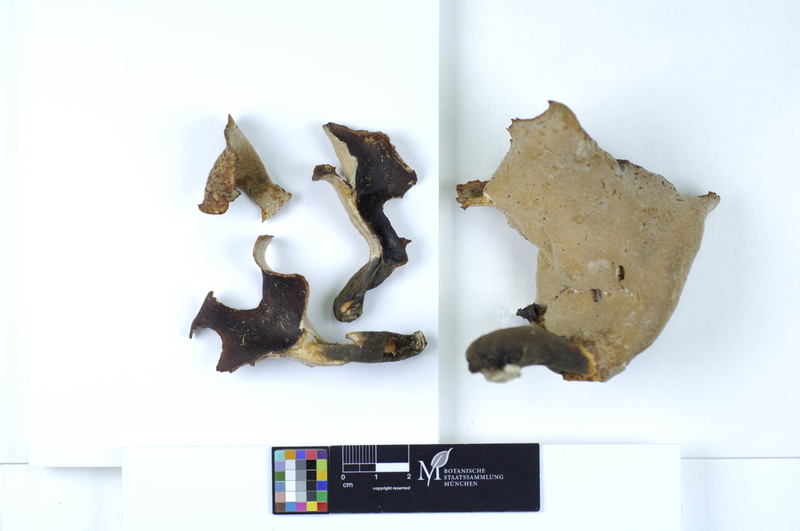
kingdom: Plantae
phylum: Tracheophyta
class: Magnoliopsida
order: Malpighiales
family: Salicaceae
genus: Populus
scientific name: Populus
